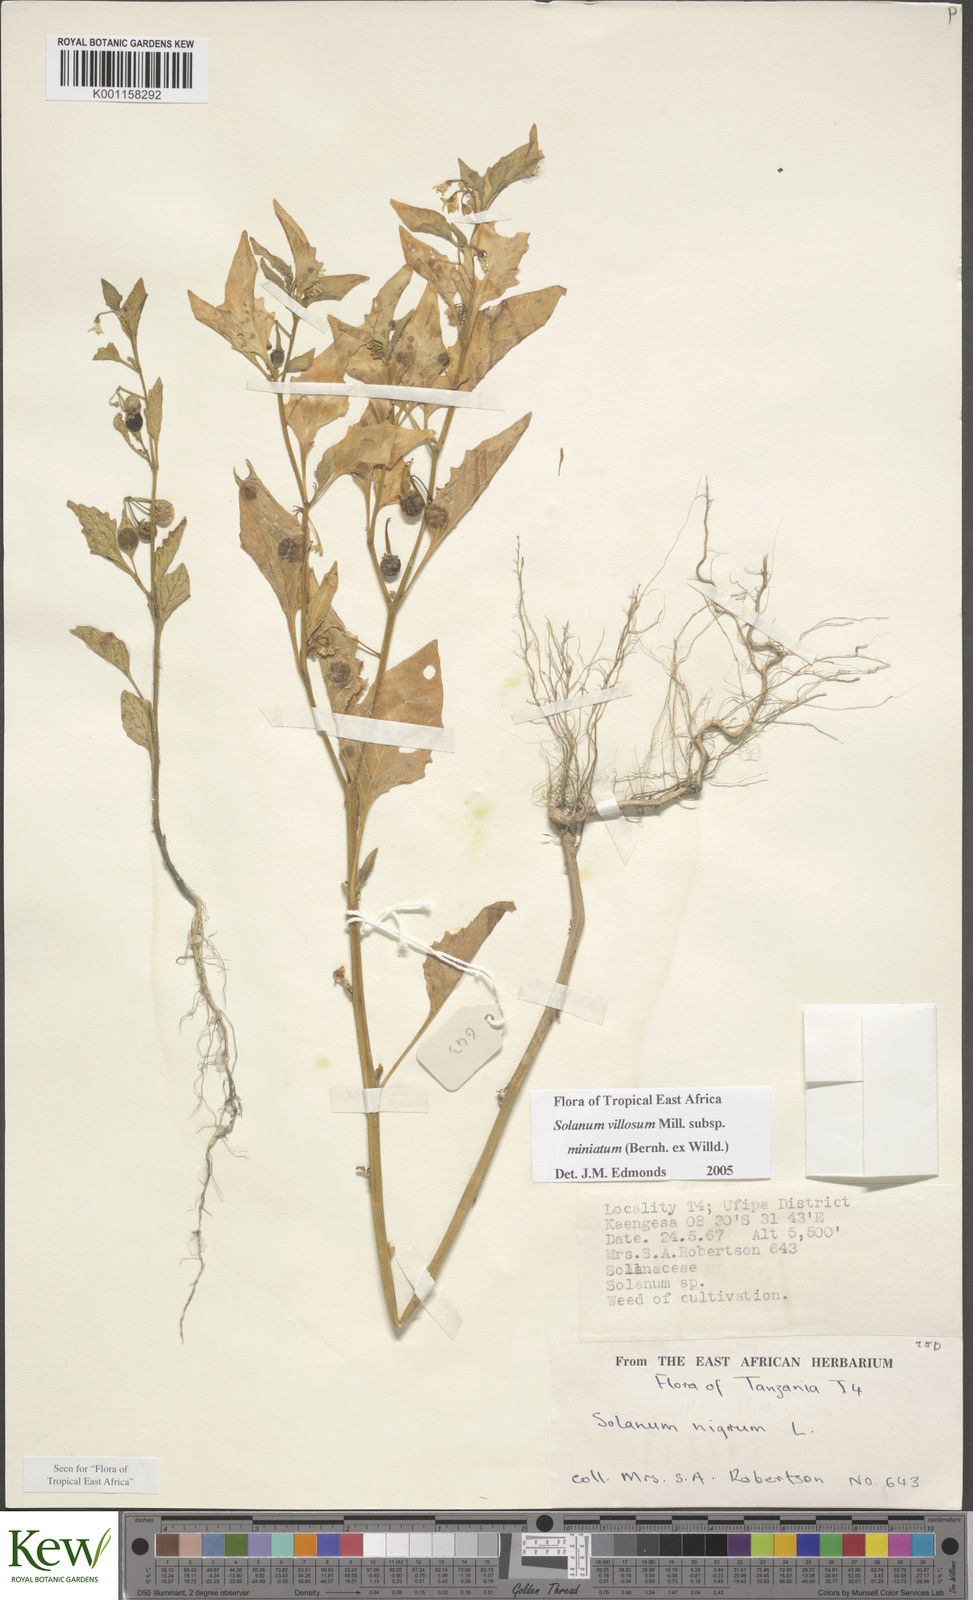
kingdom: Plantae
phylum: Tracheophyta
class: Magnoliopsida
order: Solanales
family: Solanaceae
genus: Solanum
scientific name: Solanum villosum
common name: Red nightshade
